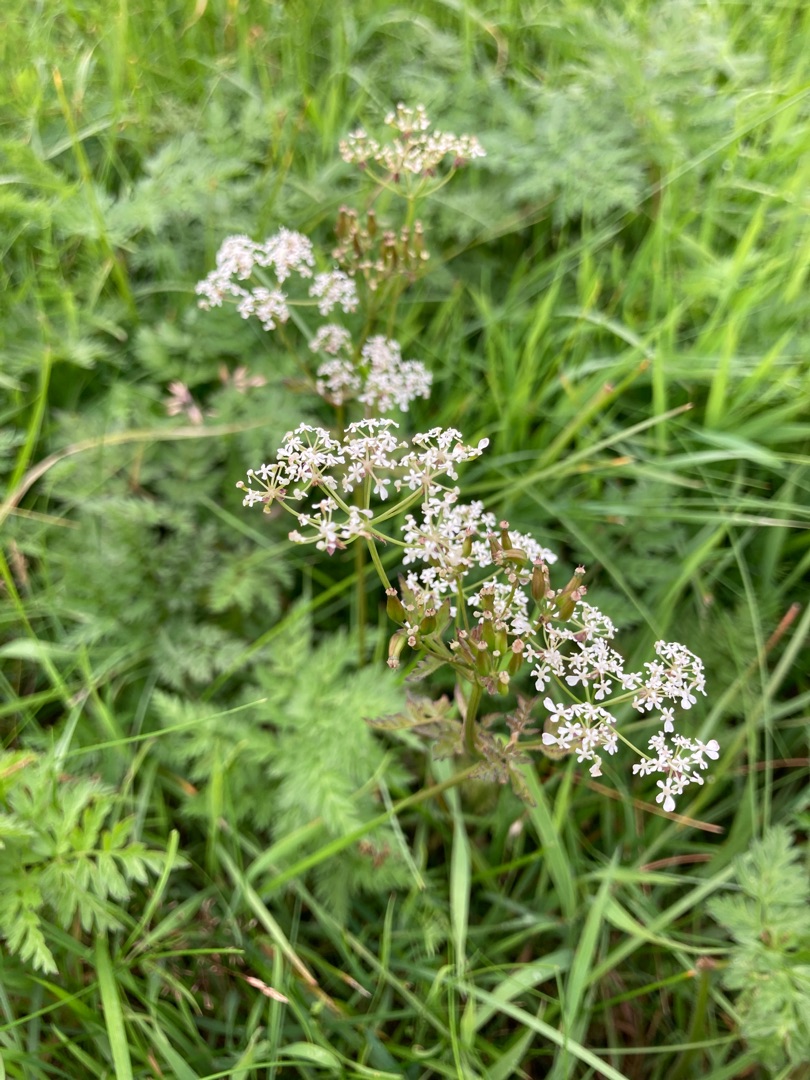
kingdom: Plantae
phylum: Tracheophyta
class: Magnoliopsida
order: Apiales
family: Apiaceae
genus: Anthriscus
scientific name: Anthriscus sylvestris
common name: Vild kørvel
